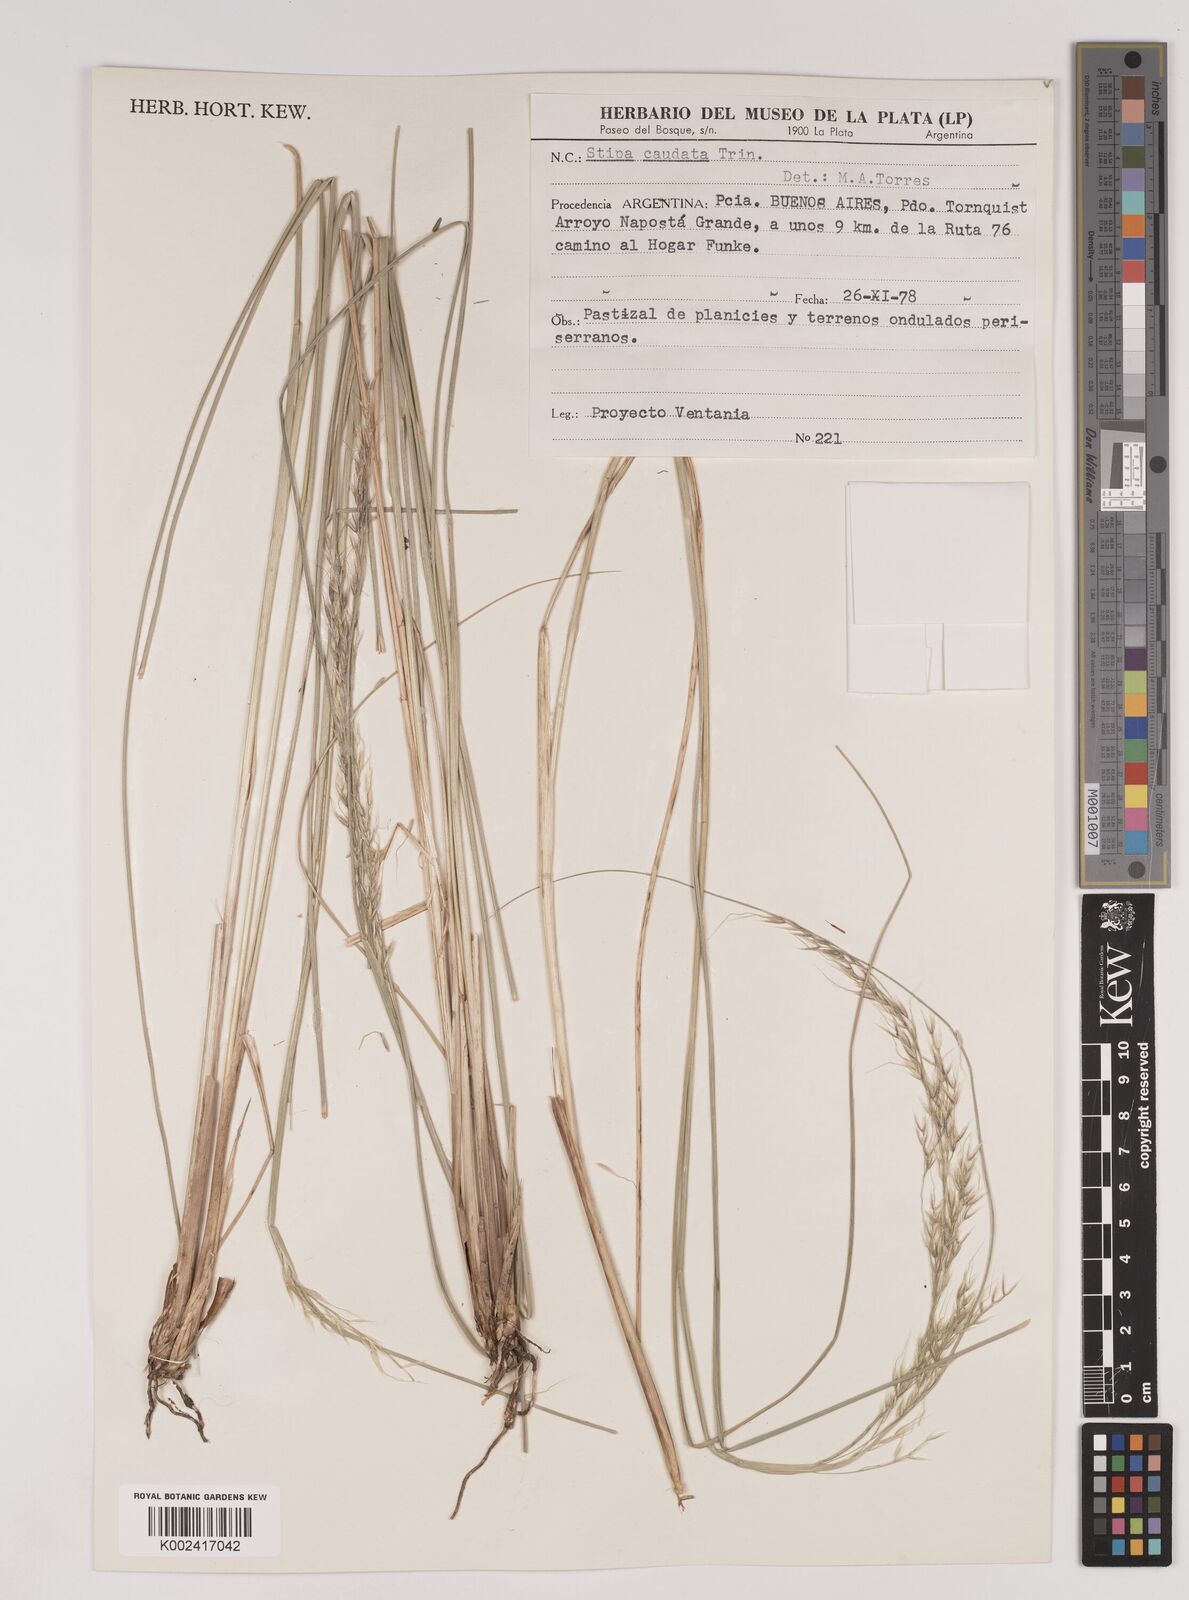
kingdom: Plantae
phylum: Tracheophyta
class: Liliopsida
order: Poales
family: Poaceae
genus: Amelichloa
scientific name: Amelichloa caudata
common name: Chilean ricegrass
